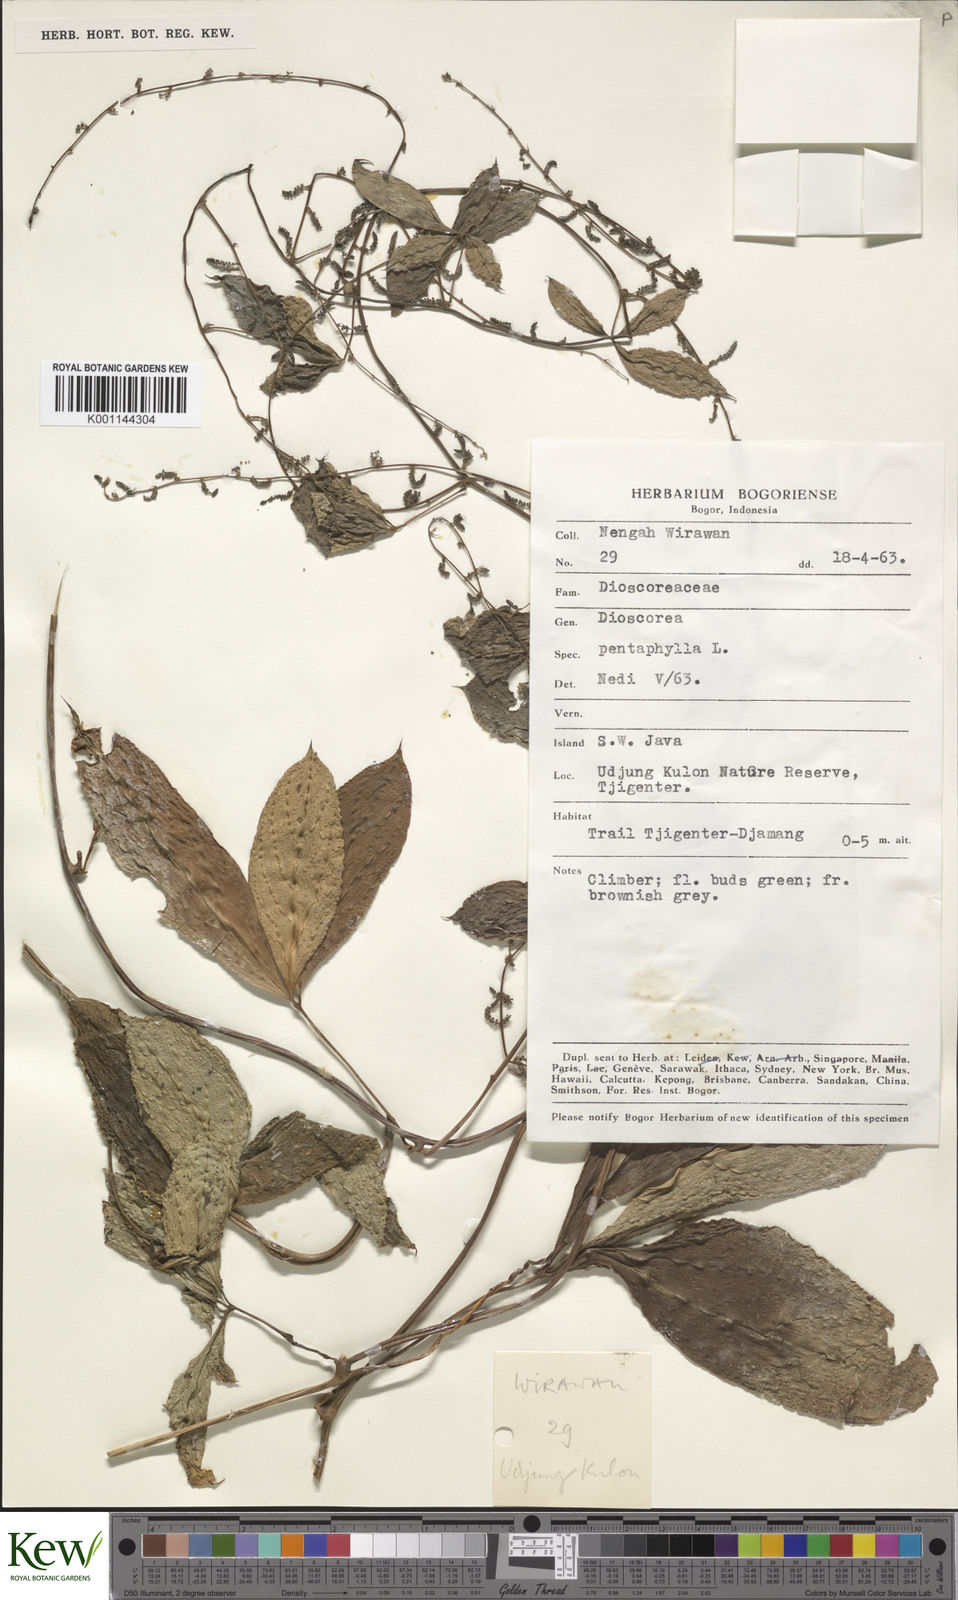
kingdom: Plantae
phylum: Tracheophyta
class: Liliopsida
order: Dioscoreales
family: Dioscoreaceae
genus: Dioscorea
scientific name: Dioscorea pentaphylla
